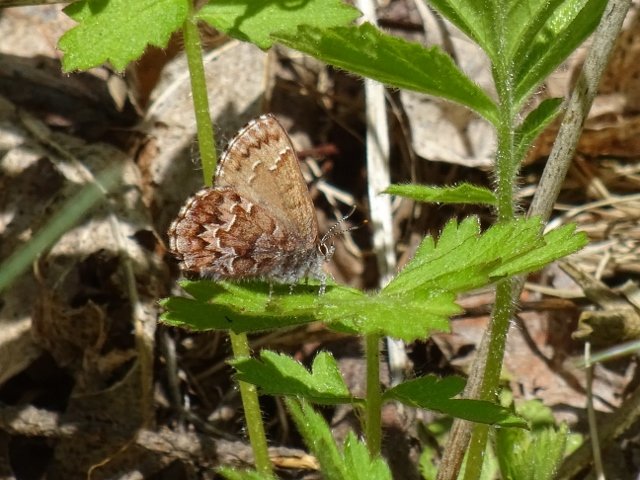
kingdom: Animalia
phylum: Arthropoda
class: Insecta
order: Lepidoptera
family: Lycaenidae
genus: Incisalia
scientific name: Incisalia niphon
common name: Eastern Pine Elfin
